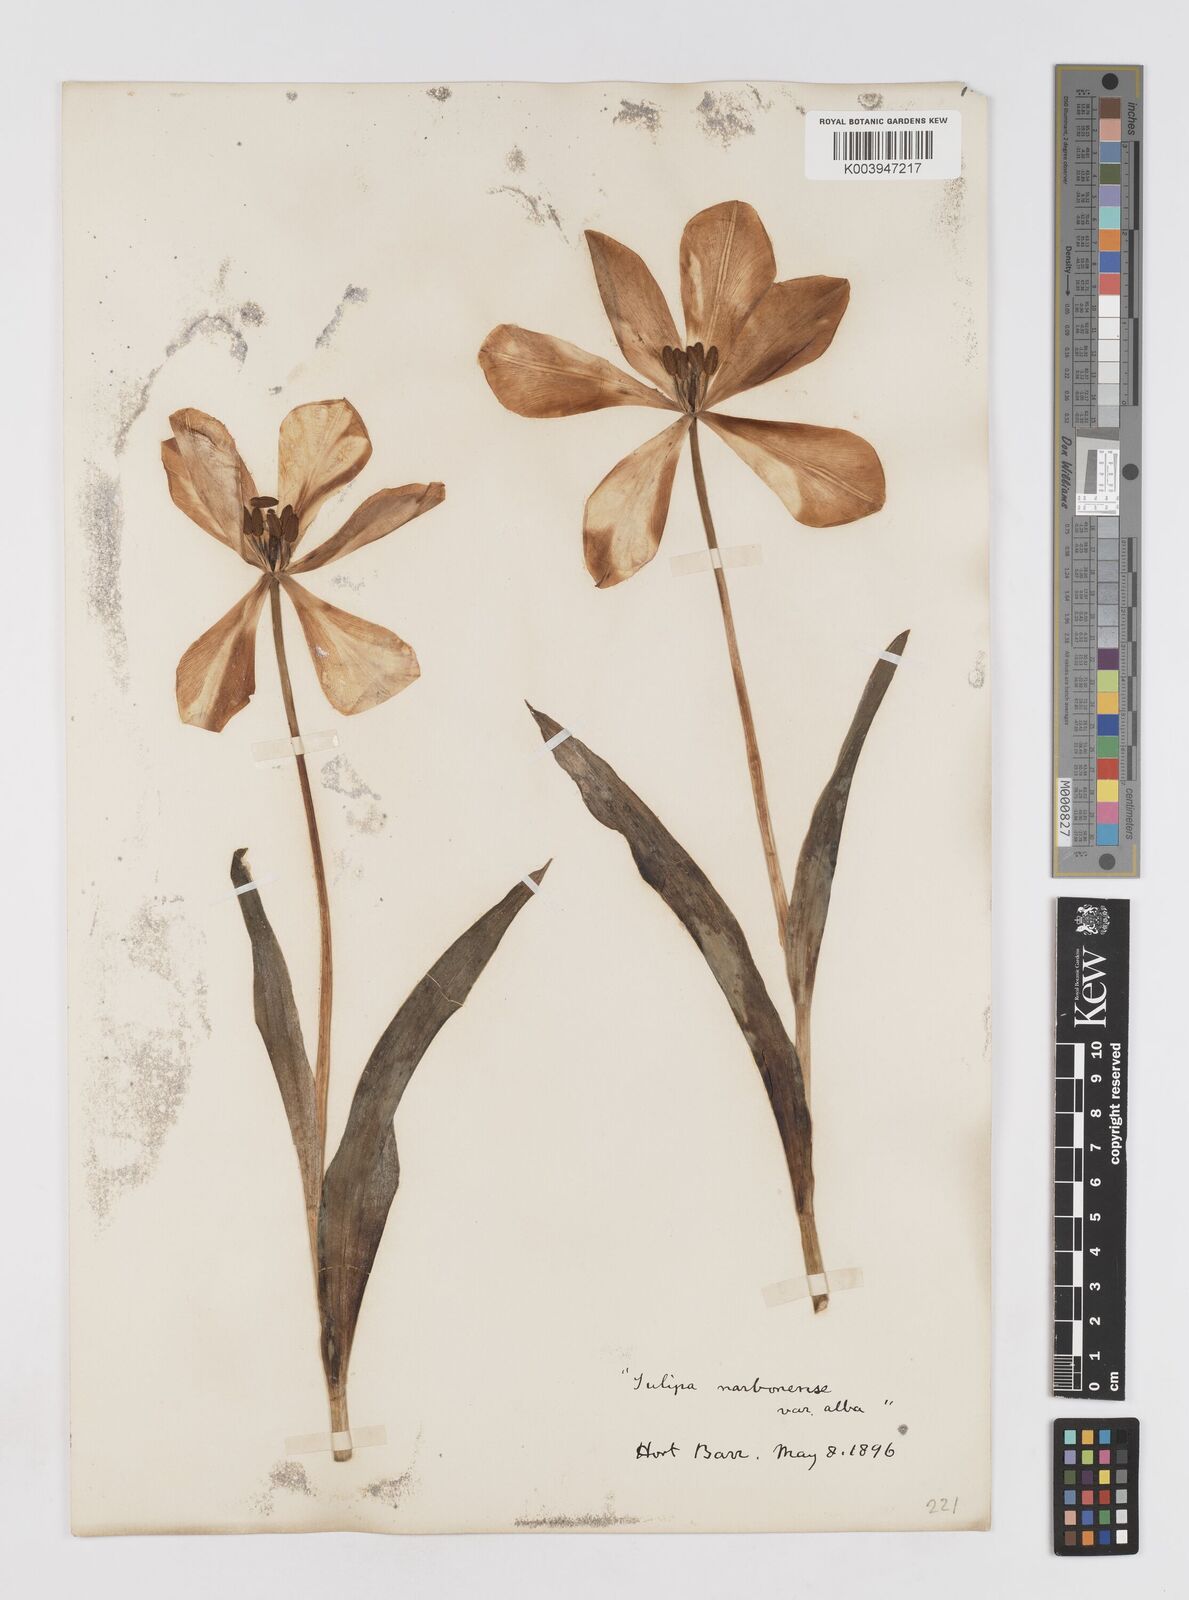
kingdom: Plantae
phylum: Tracheophyta
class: Liliopsida
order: Liliales
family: Liliaceae
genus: Tulipa
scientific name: Tulipa gesneriana
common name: Garden tulip
